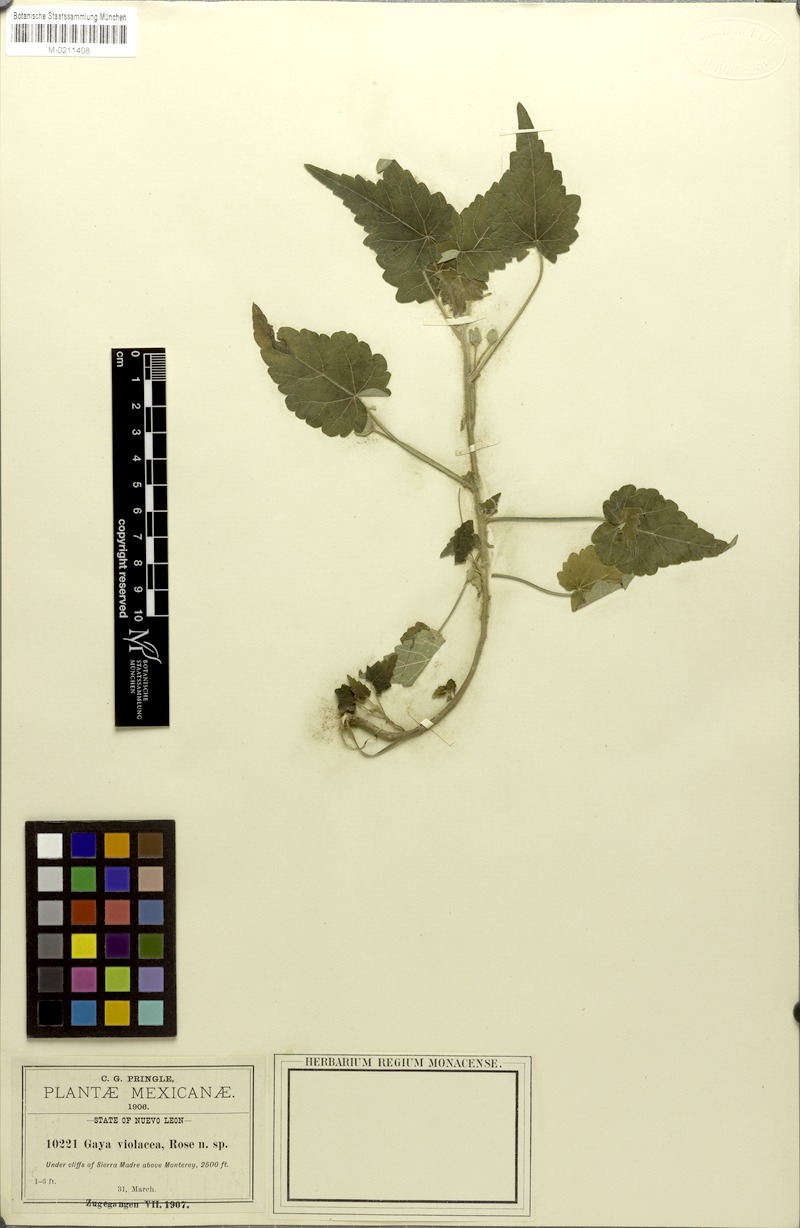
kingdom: Plantae
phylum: Tracheophyta
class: Magnoliopsida
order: Malvales
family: Malvaceae
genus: Batesimalva
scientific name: Batesimalva violacea
